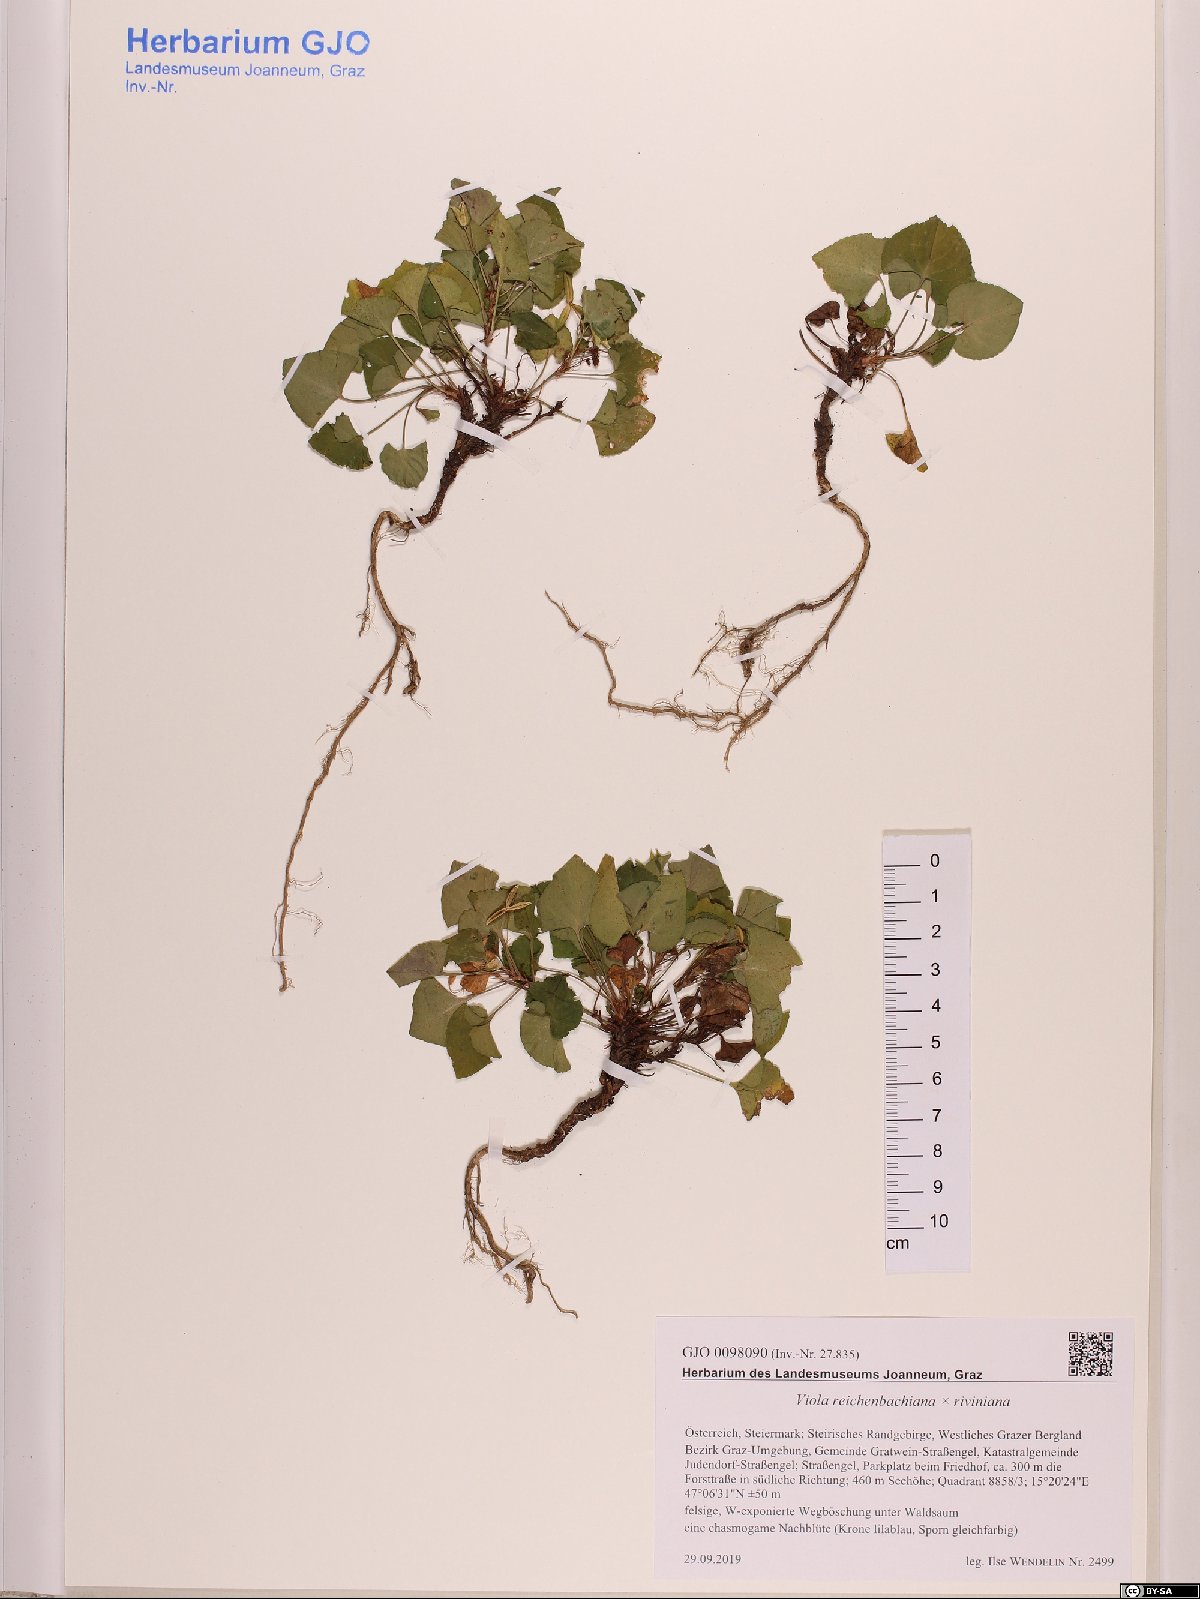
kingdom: Plantae
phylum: Tracheophyta
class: Magnoliopsida
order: Malpighiales
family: Violaceae
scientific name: Violaceae
